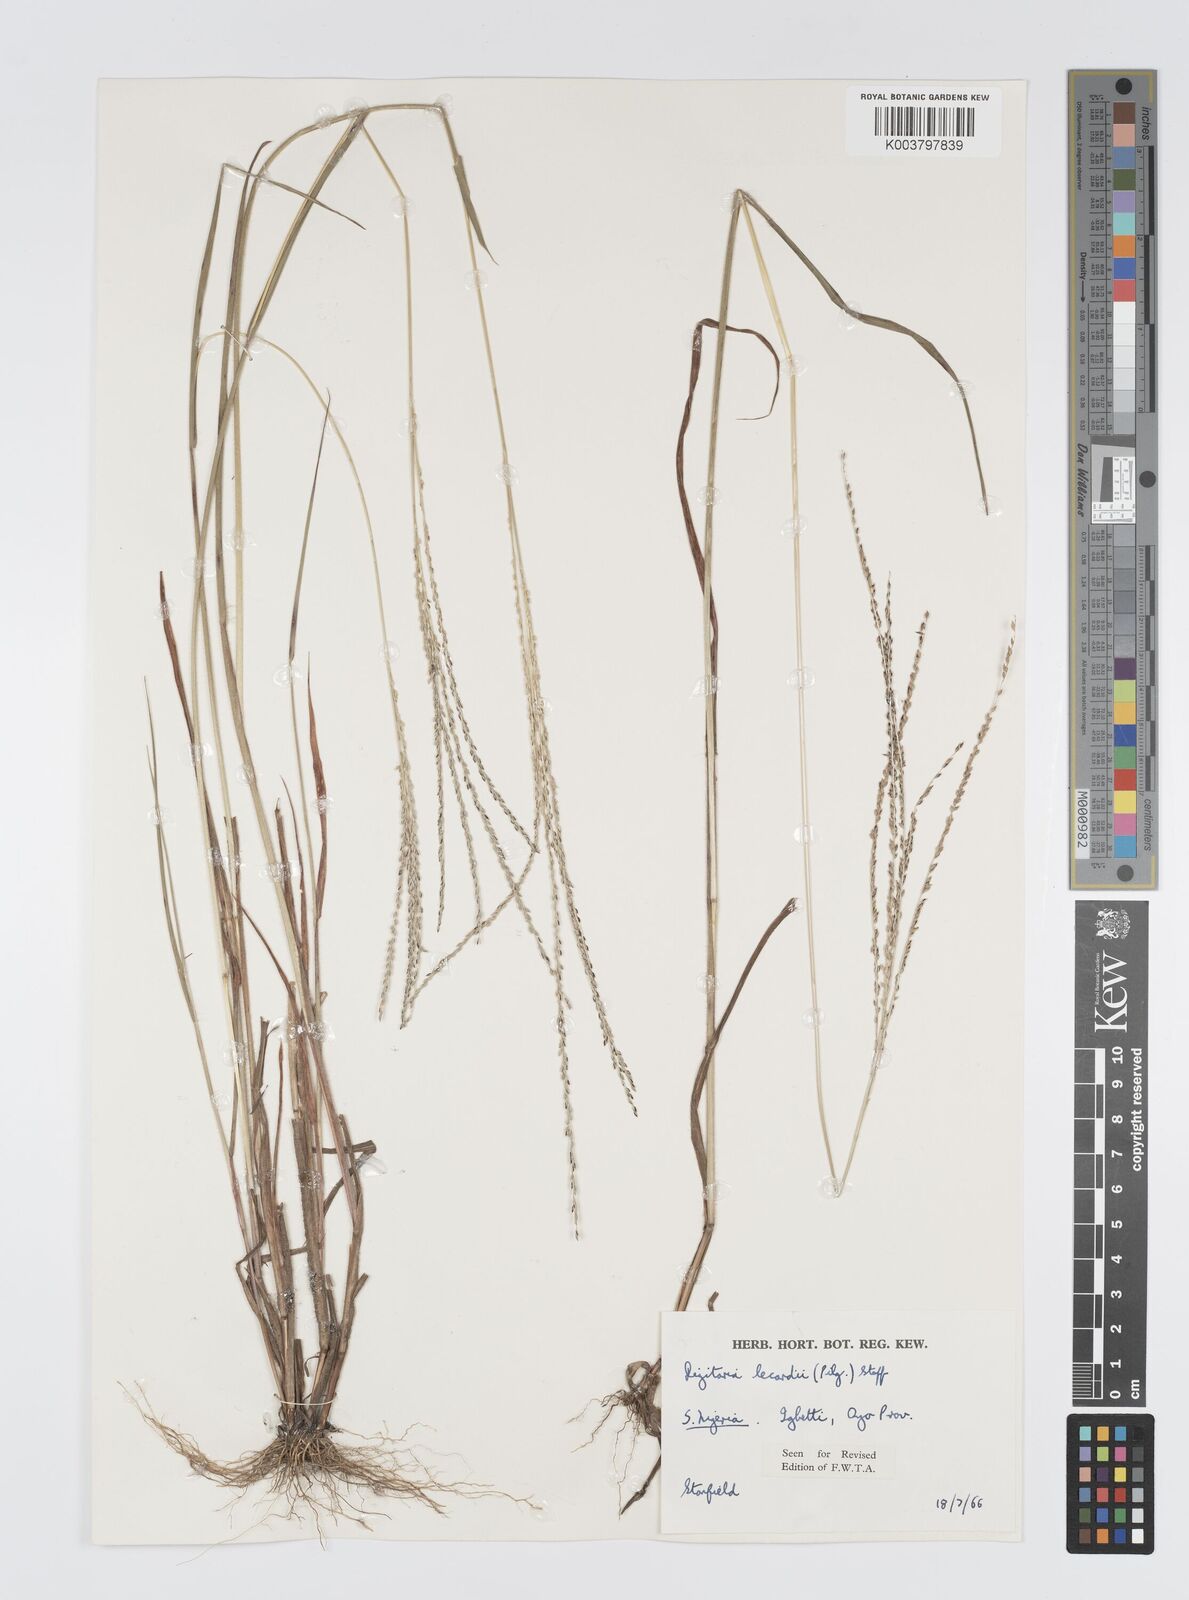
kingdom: Plantae
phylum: Tracheophyta
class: Liliopsida
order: Poales
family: Poaceae
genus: Digitaria
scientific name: Digitaria argillacea
